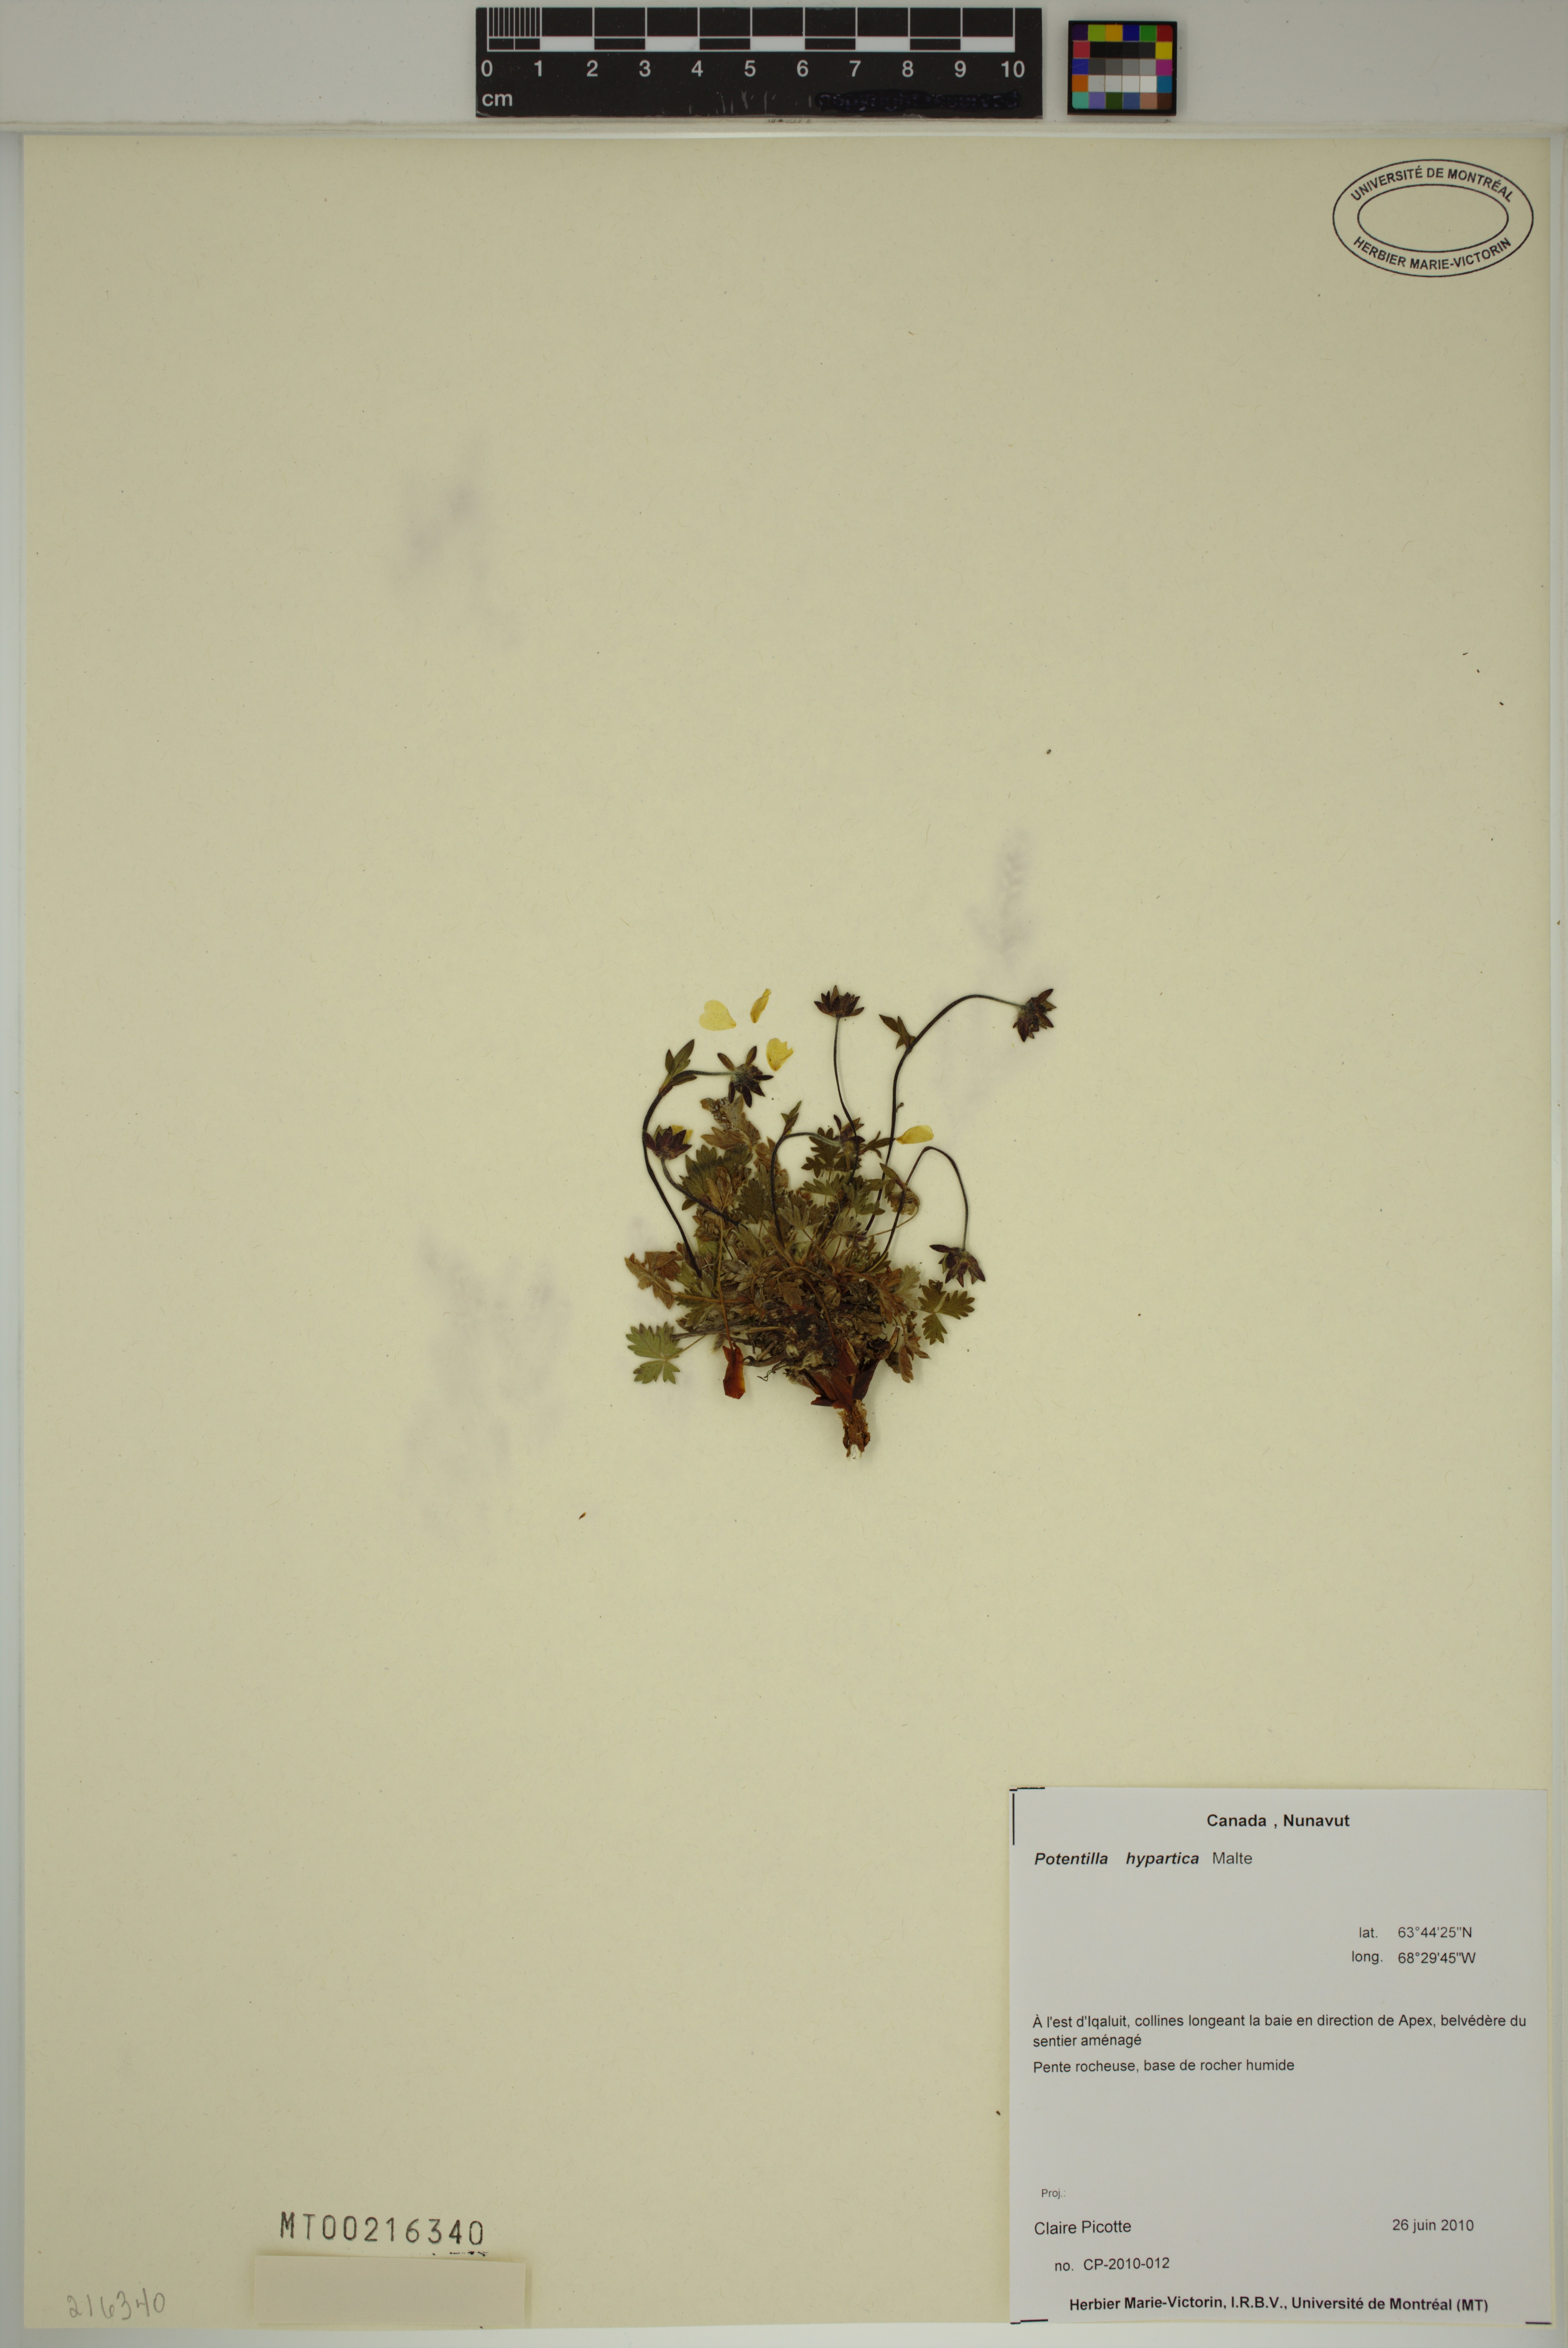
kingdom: Plantae
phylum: Tracheophyta
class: Magnoliopsida
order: Rosales
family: Rosaceae
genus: Potentilla
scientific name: Potentilla hyparctica
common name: Arctic cinquefoil
